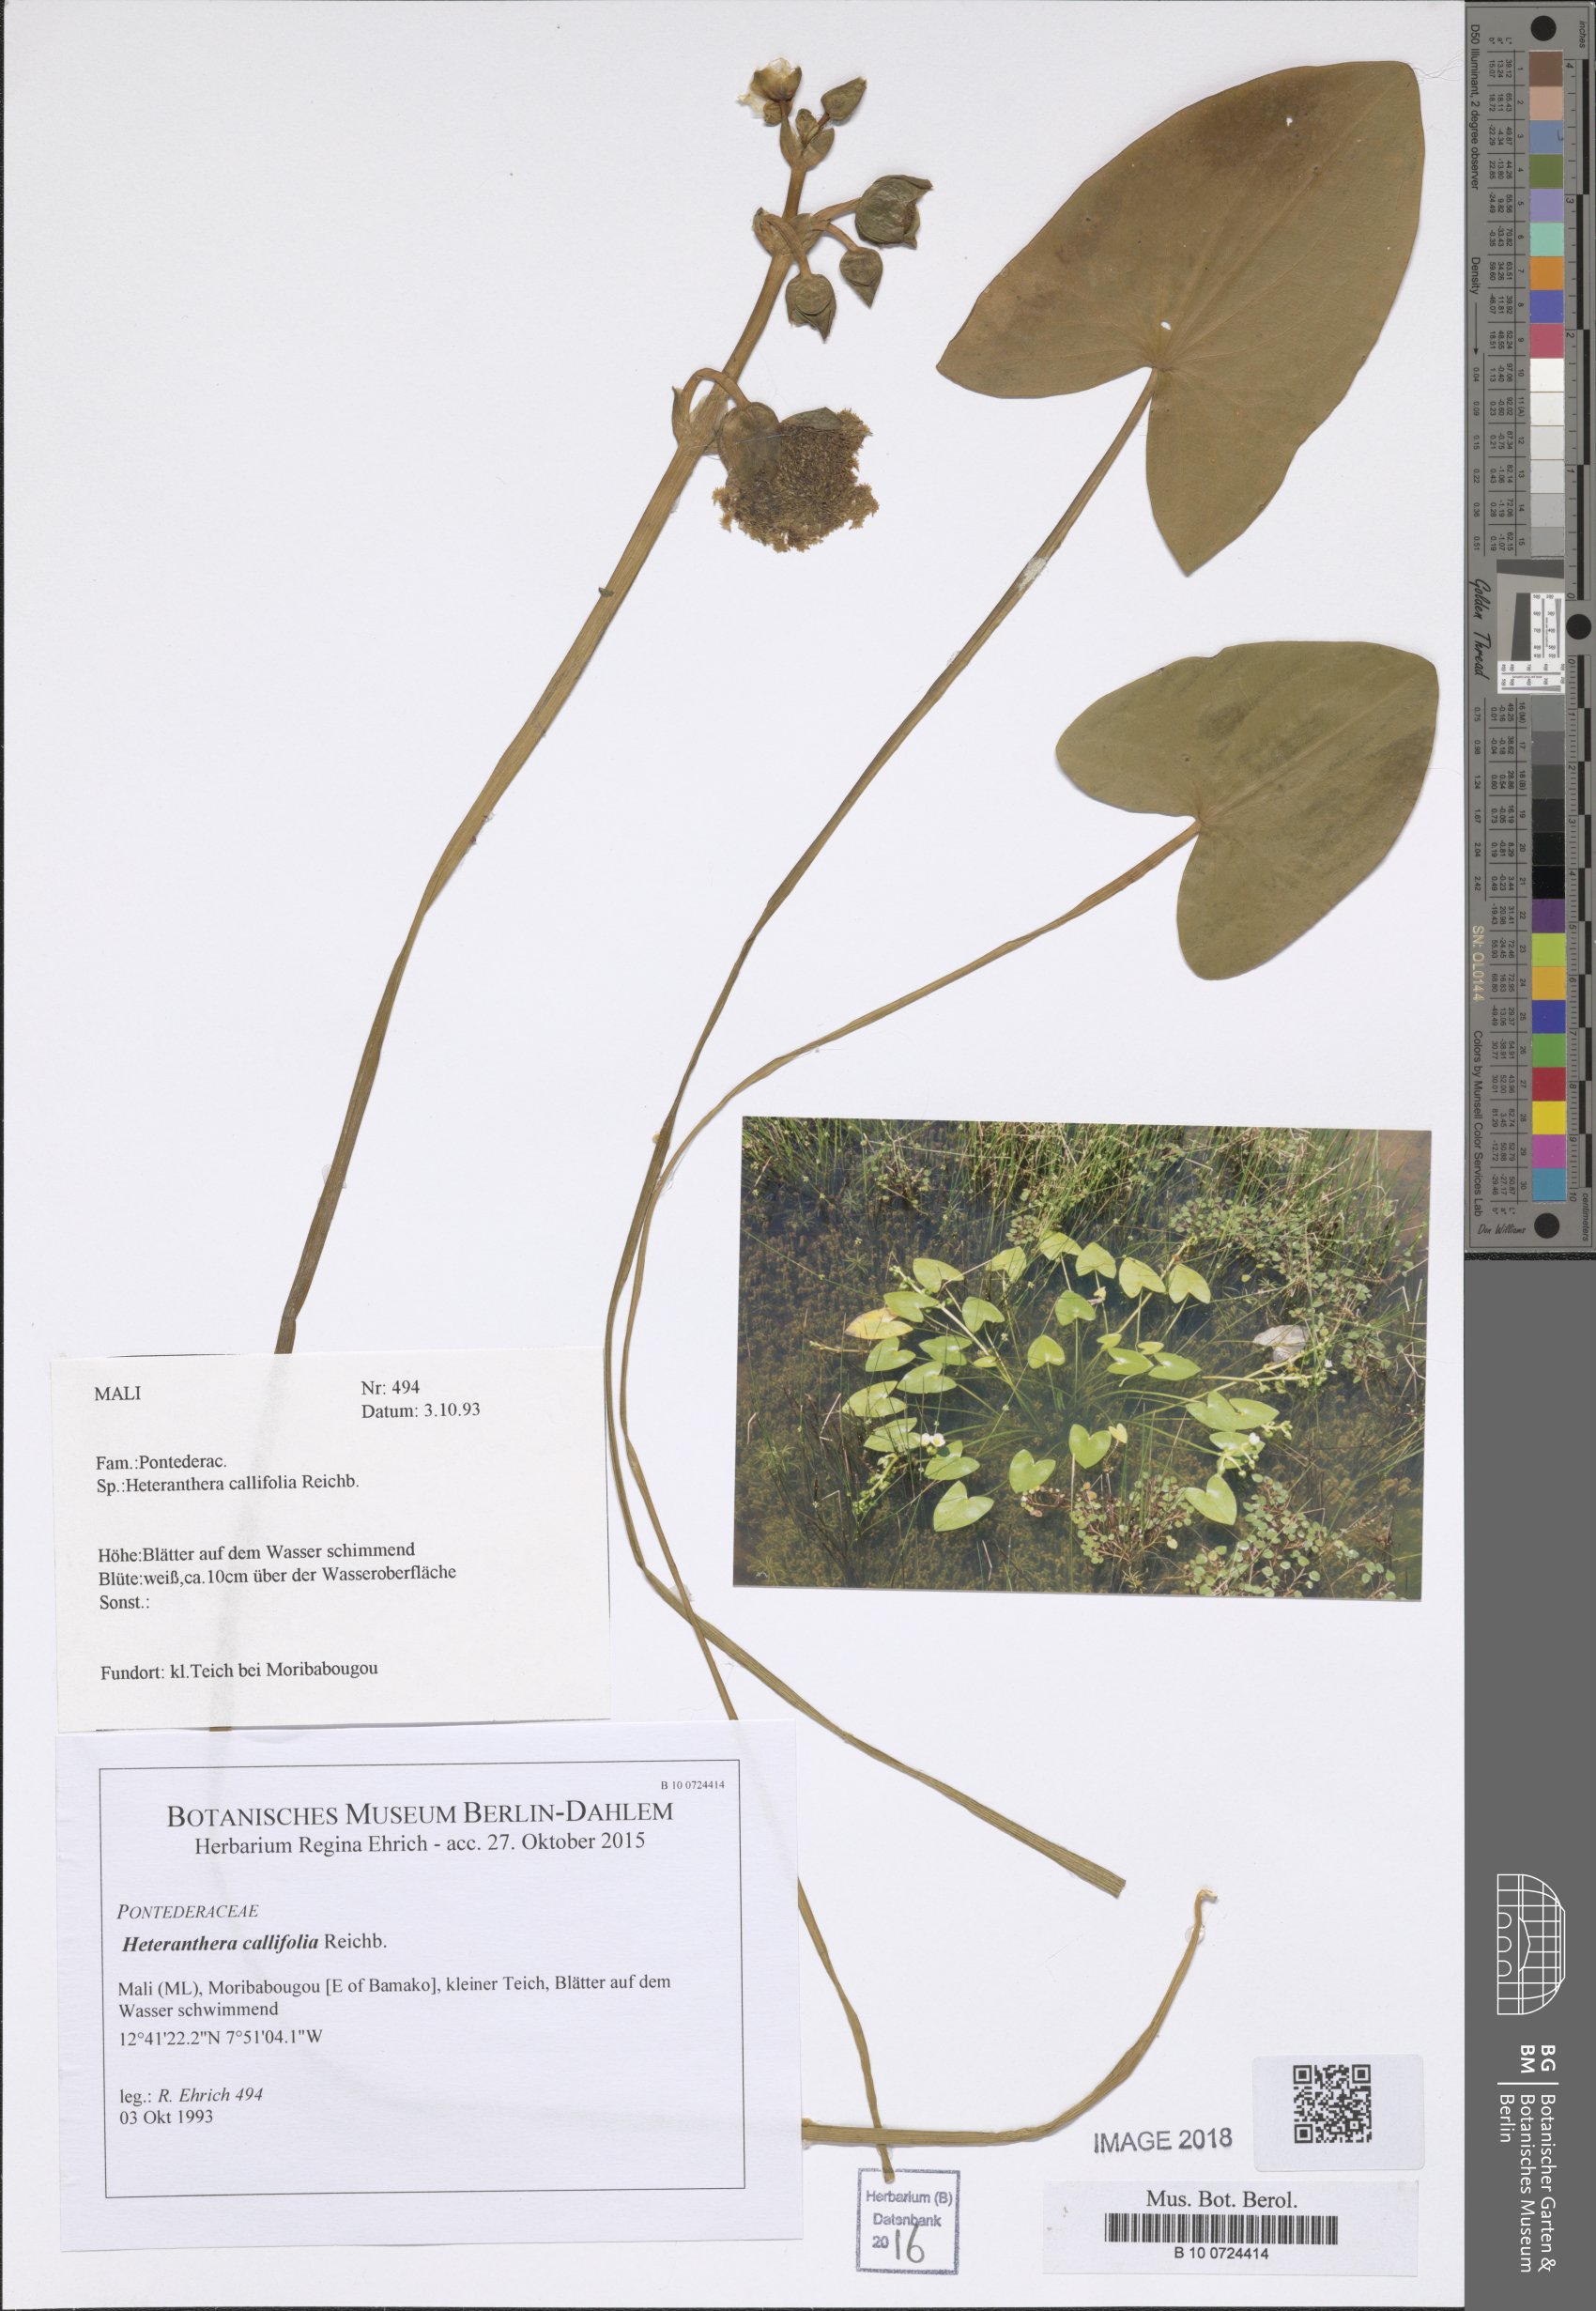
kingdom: Plantae
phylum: Tracheophyta
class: Liliopsida
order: Commelinales
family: Pontederiaceae
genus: Heteranthera
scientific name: Heteranthera callifolia
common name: Mud plantain
